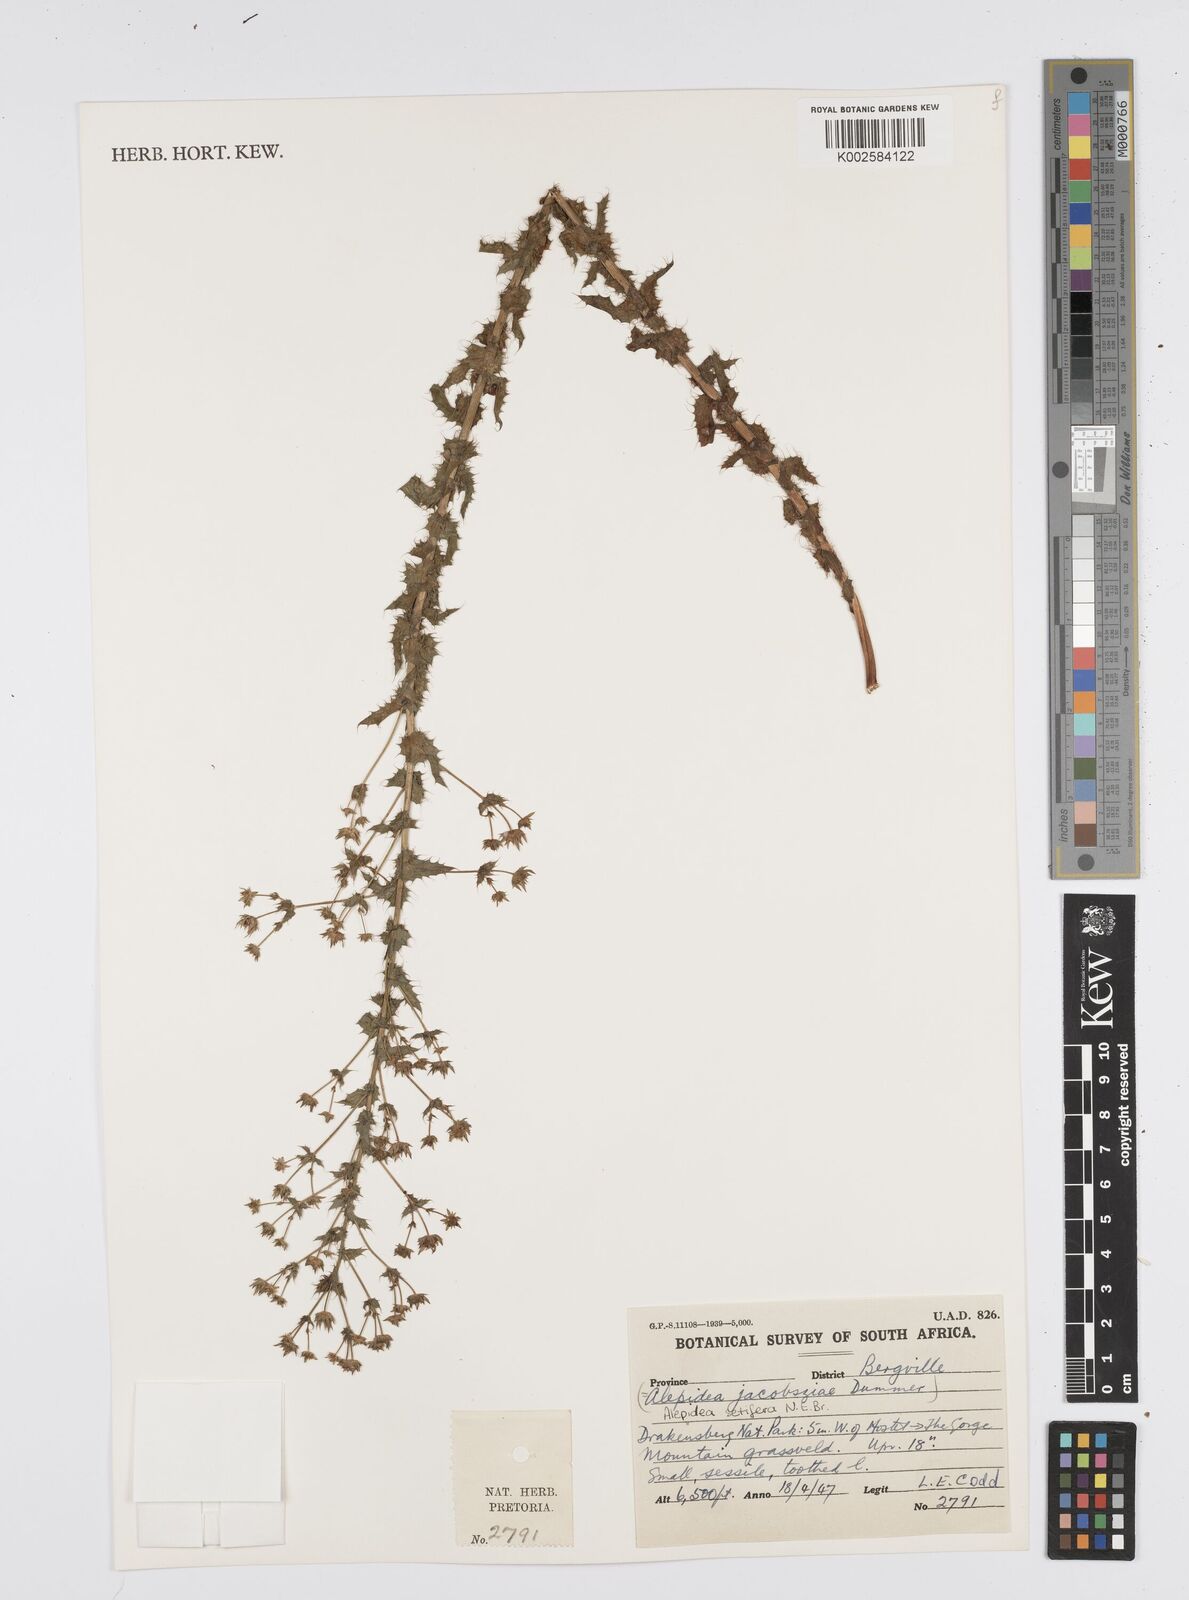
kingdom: Plantae
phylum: Tracheophyta
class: Magnoliopsida
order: Apiales
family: Apiaceae
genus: Alepidea
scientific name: Alepidea setifera
